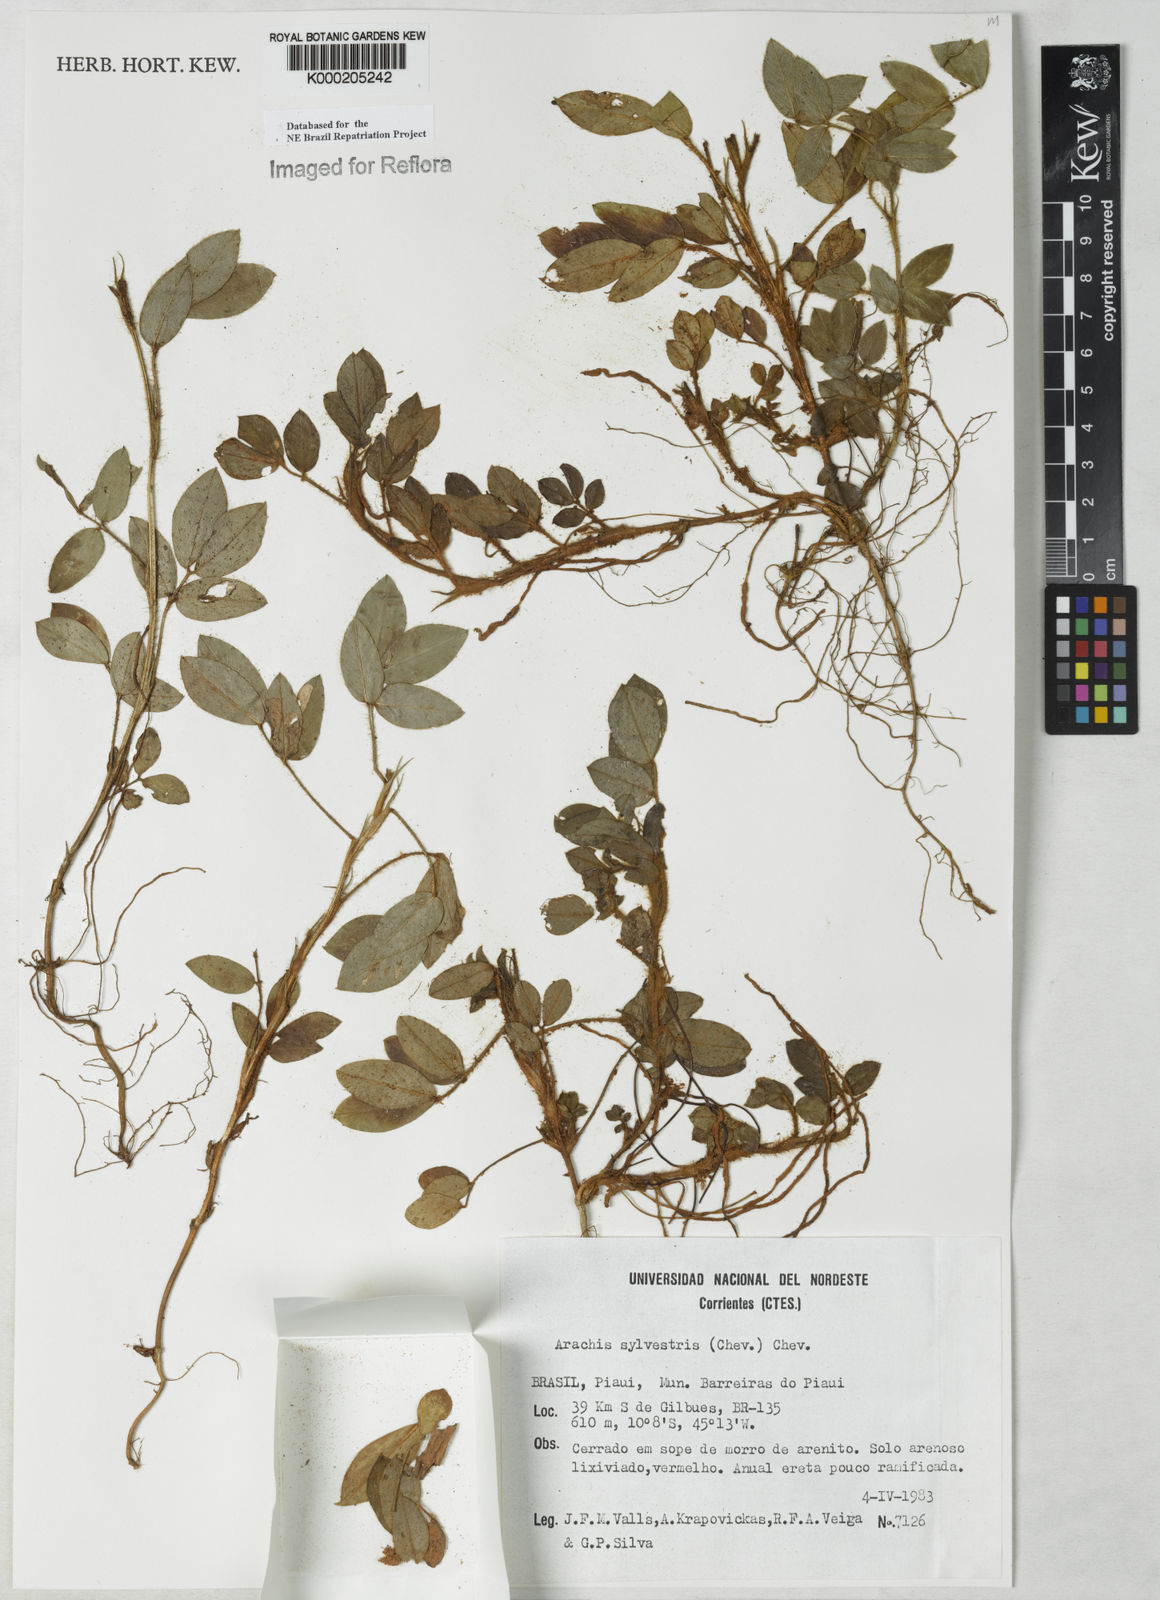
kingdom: Plantae
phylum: Tracheophyta
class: Magnoliopsida
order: Fabales
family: Fabaceae
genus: Arachis
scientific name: Arachis pusilla
